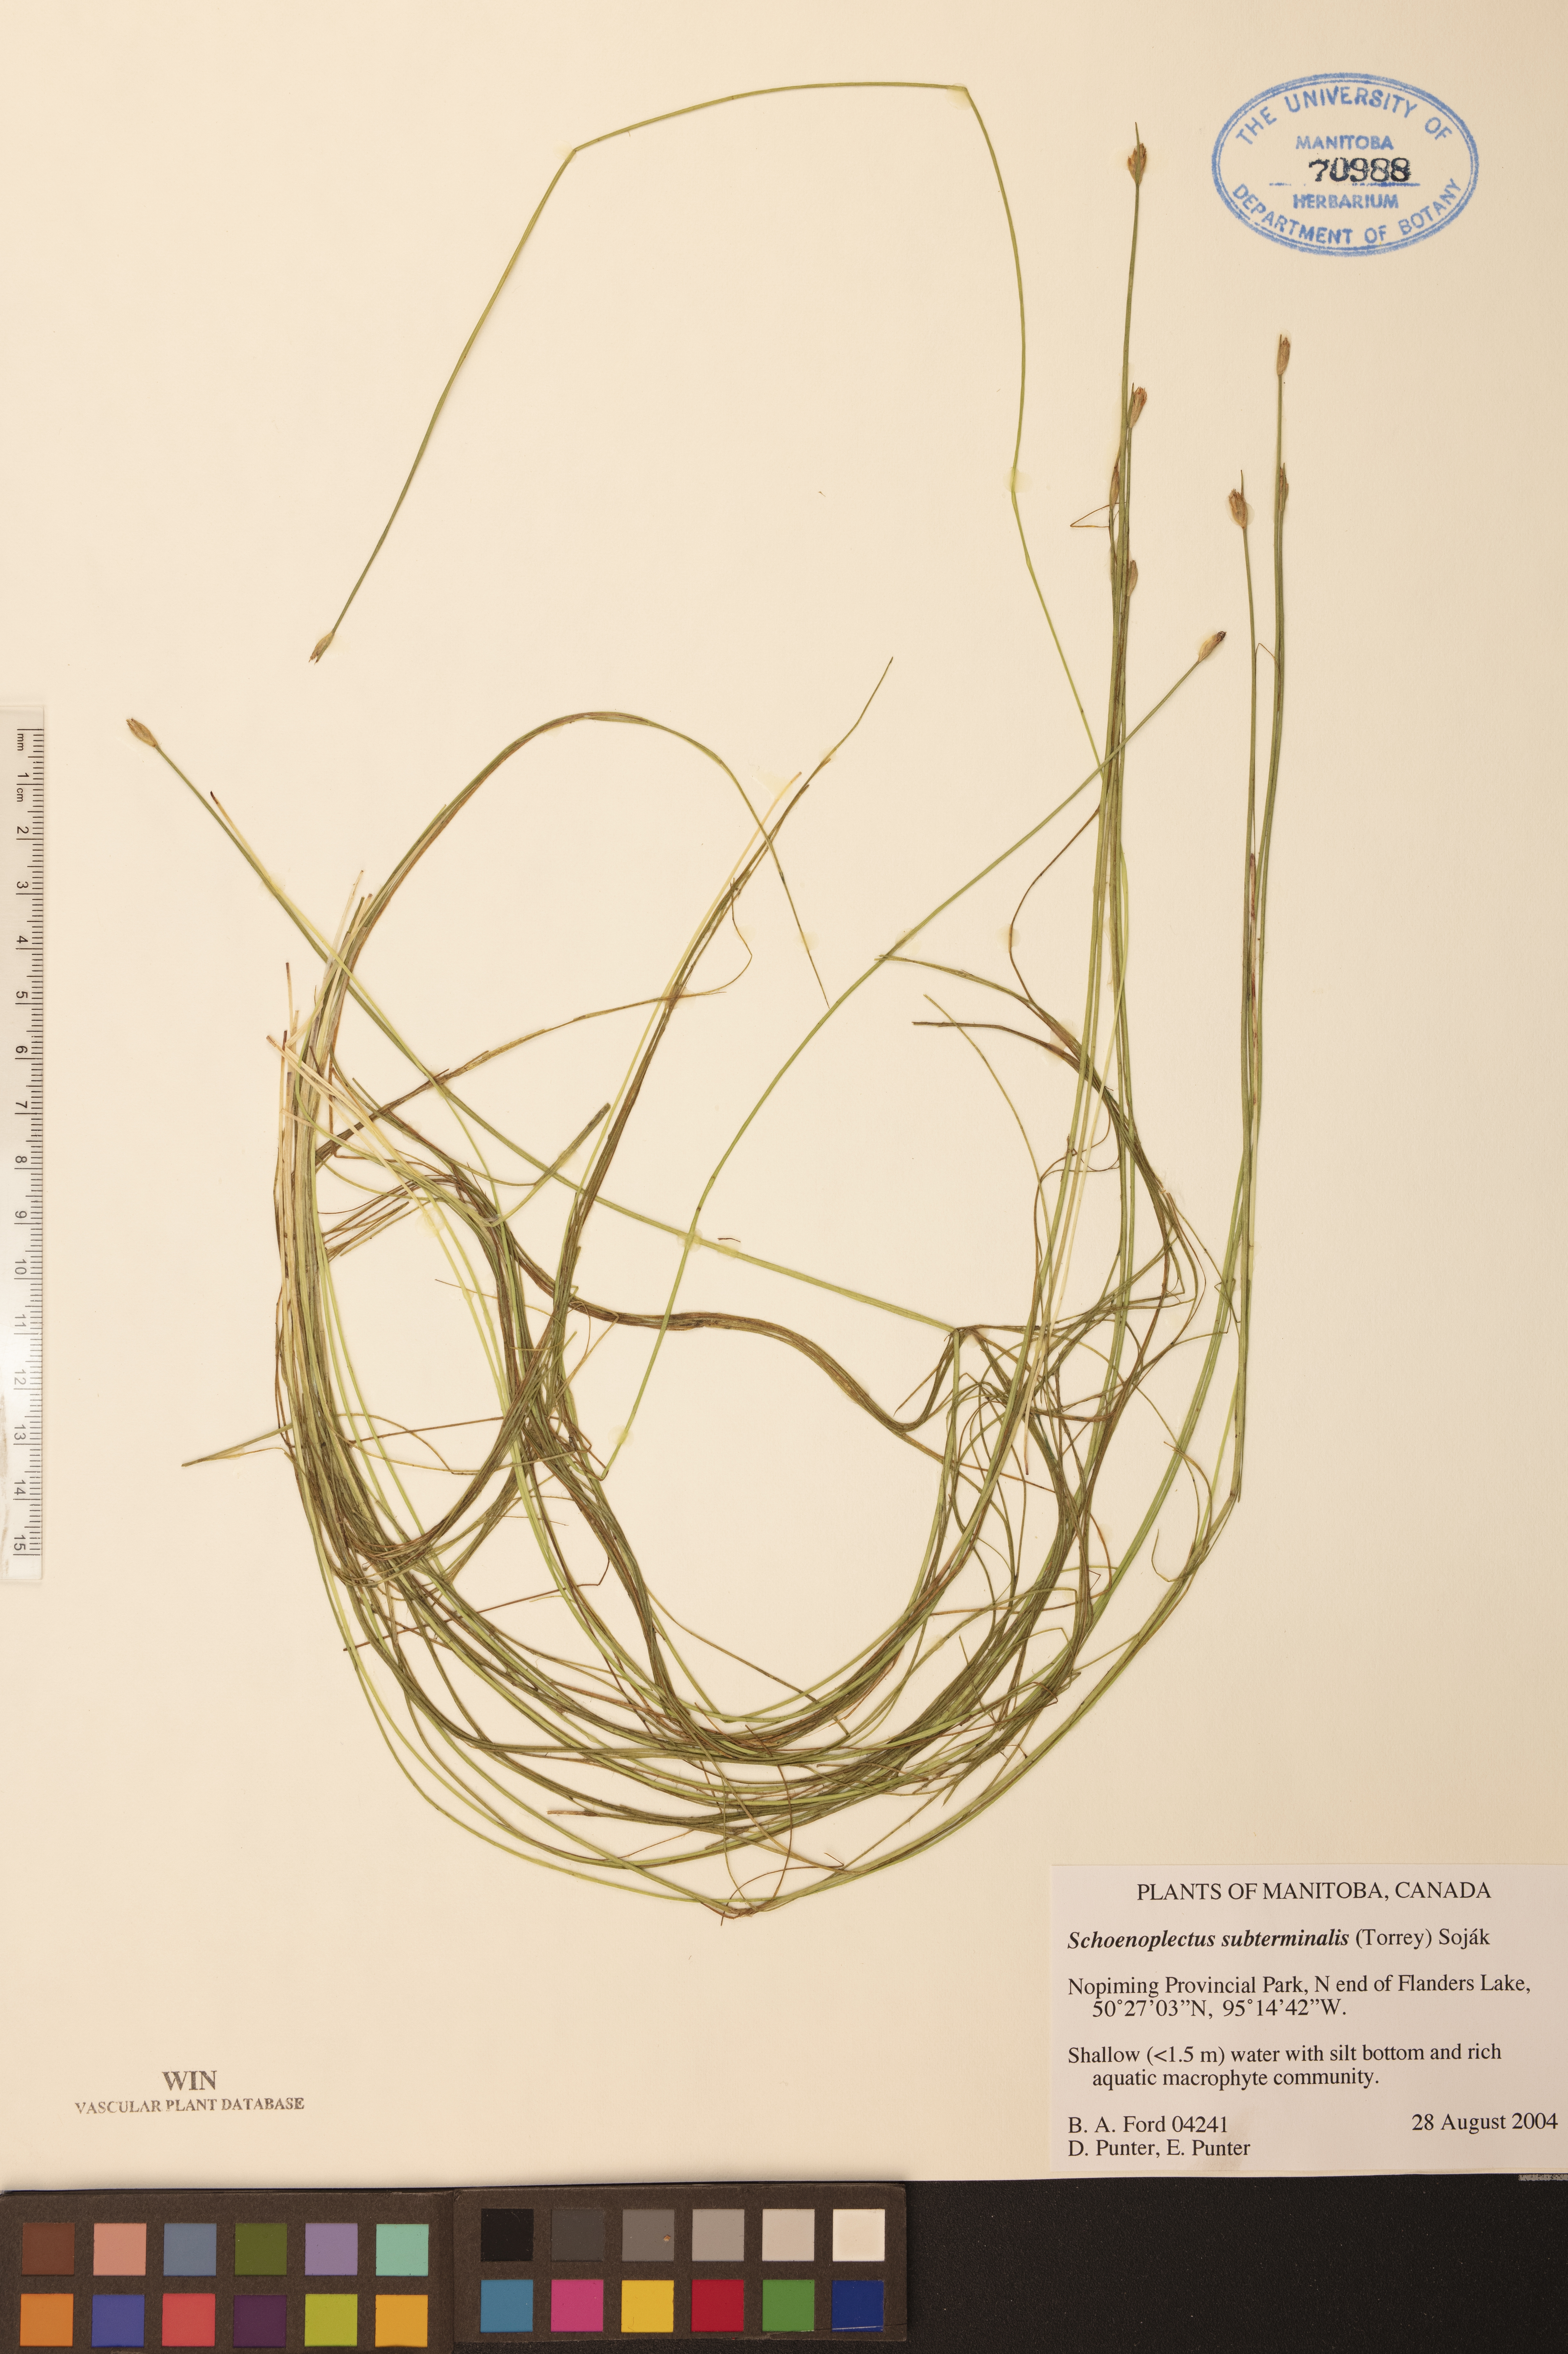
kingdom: Plantae
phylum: Tracheophyta
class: Liliopsida
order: Poales
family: Cyperaceae
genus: Schoenoplectus
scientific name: Schoenoplectus subterminalis
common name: Swaying bulrush
